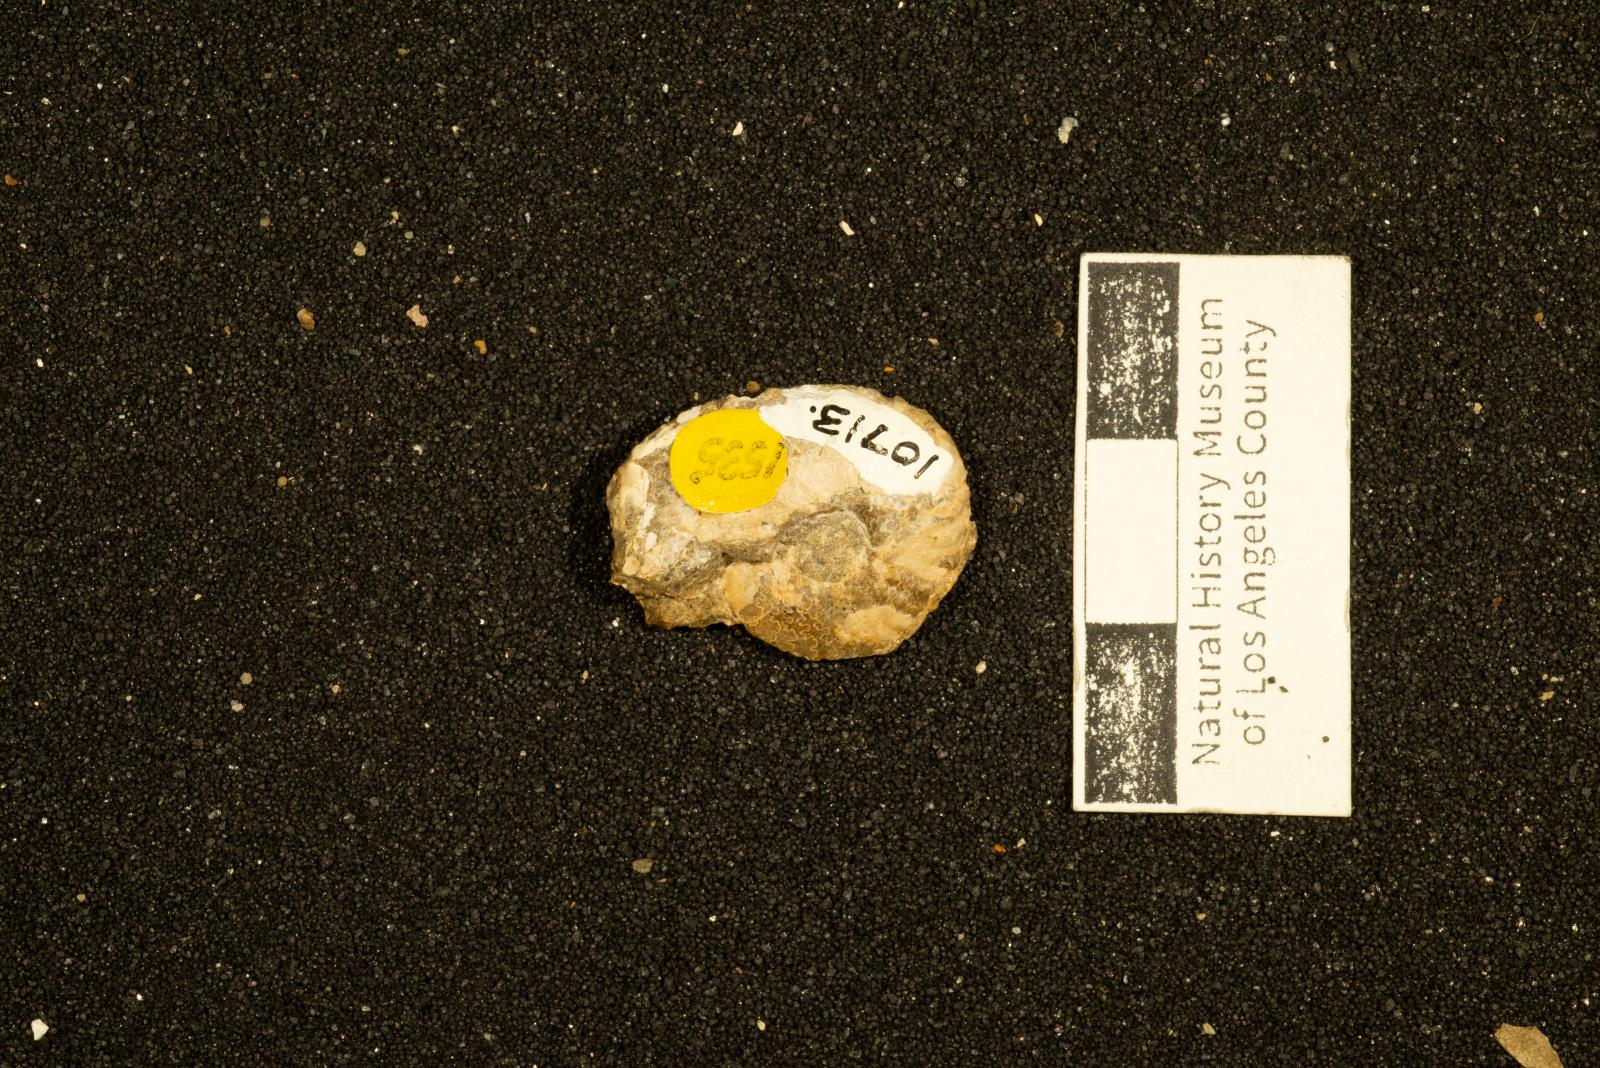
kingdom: Animalia
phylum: Mollusca
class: Cephalopoda
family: Placenticeratidae
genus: Metaplacenticeras
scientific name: Metaplacenticeras Placenticeras californicum
